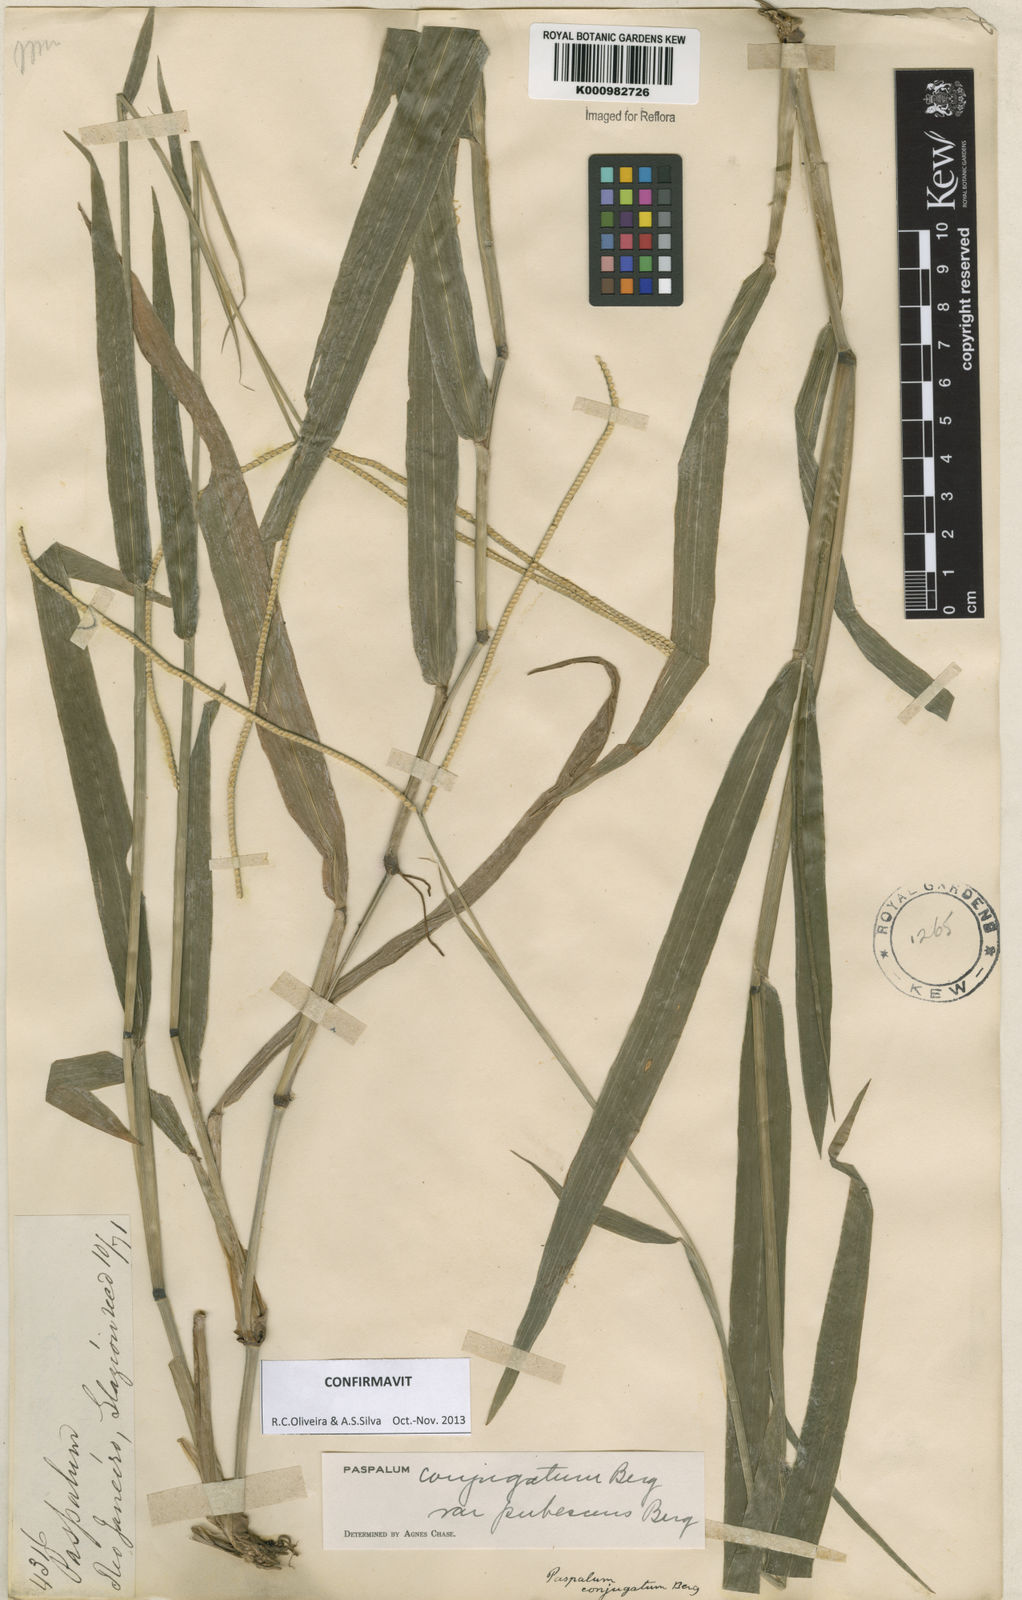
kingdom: Plantae
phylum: Tracheophyta
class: Liliopsida
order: Poales
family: Poaceae
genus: Paspalum
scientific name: Paspalum conjugatum
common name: Hilograss
